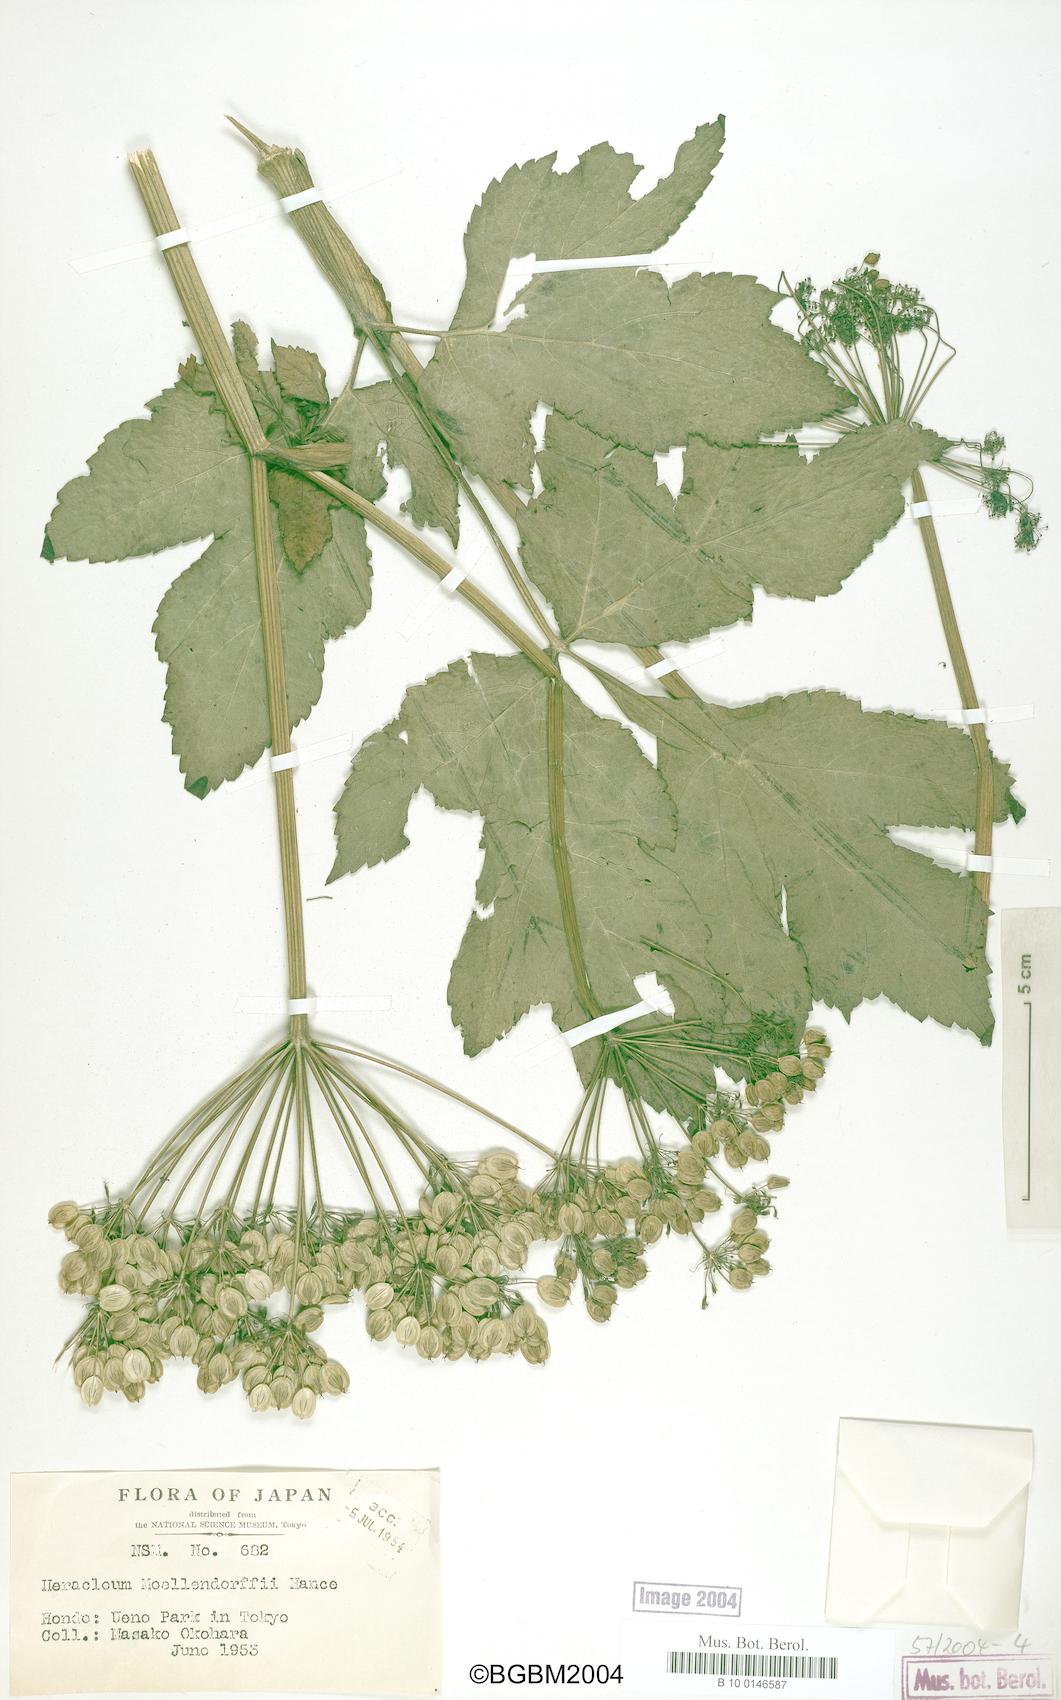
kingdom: Plantae
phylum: Tracheophyta
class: Magnoliopsida
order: Apiales
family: Apiaceae
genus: Heracleum
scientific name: Heracleum
